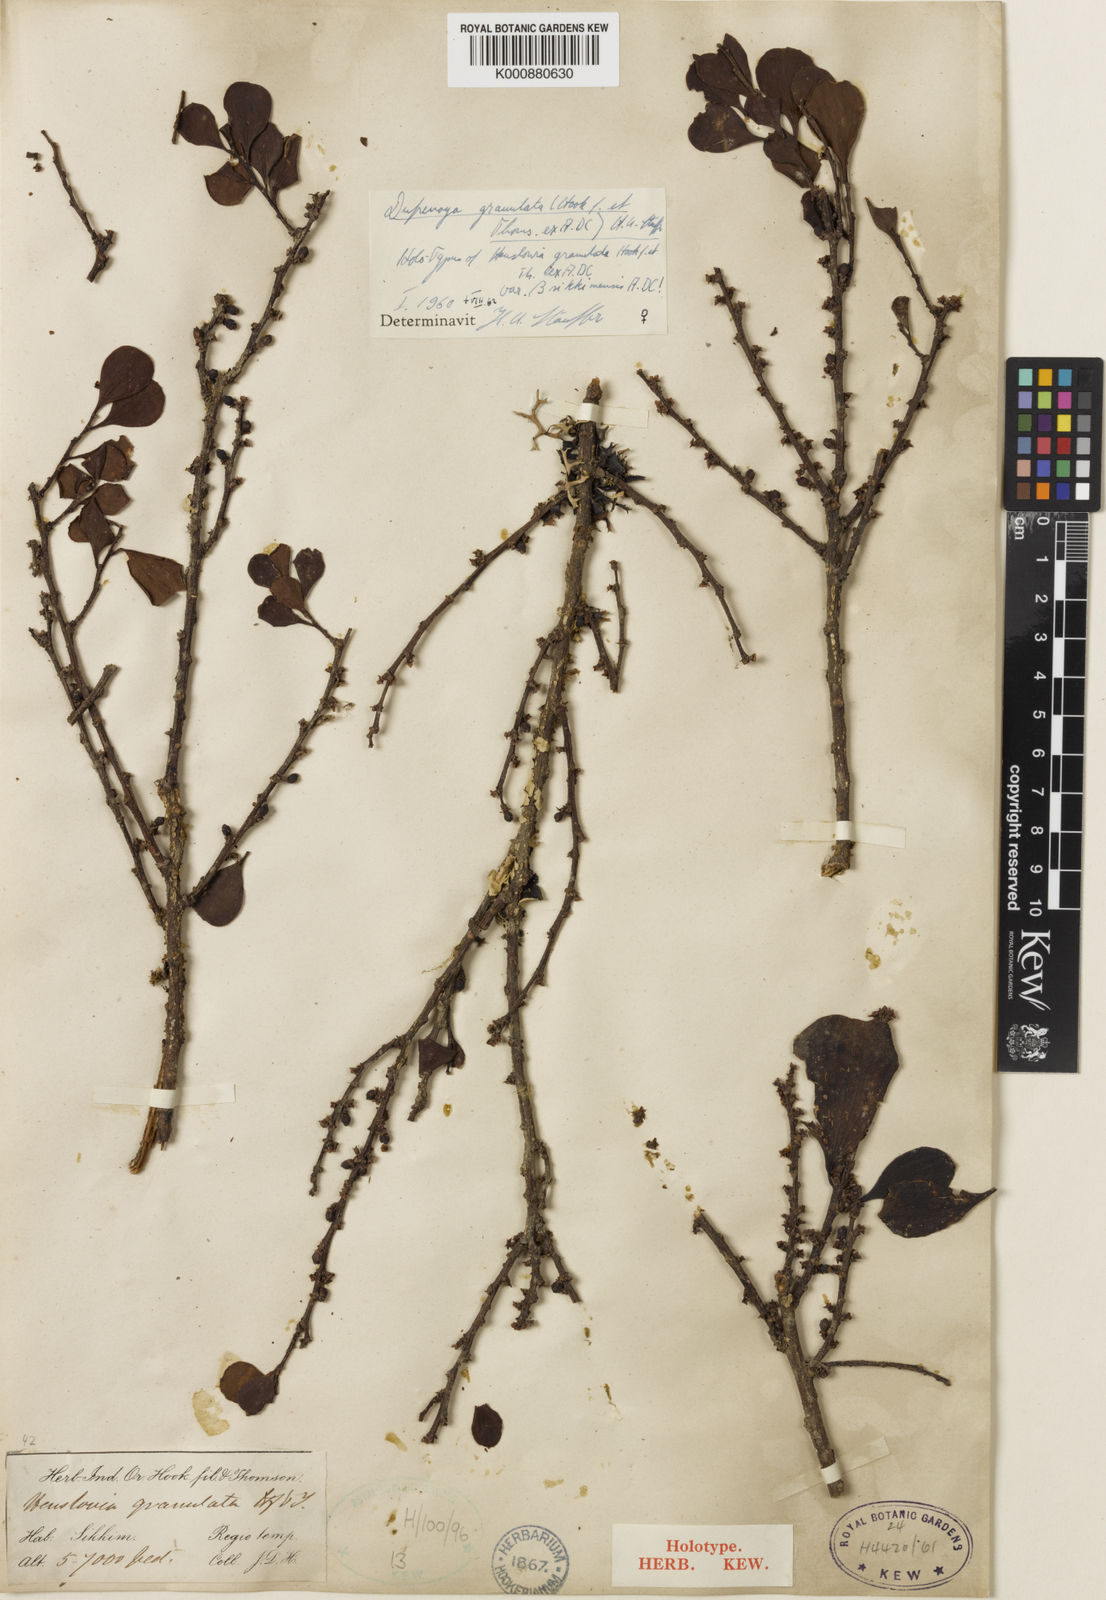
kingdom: Plantae
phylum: Tracheophyta
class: Magnoliopsida
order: Santalales
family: Amphorogynaceae
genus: Dendrotrophe
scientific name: Dendrotrophe granulata
